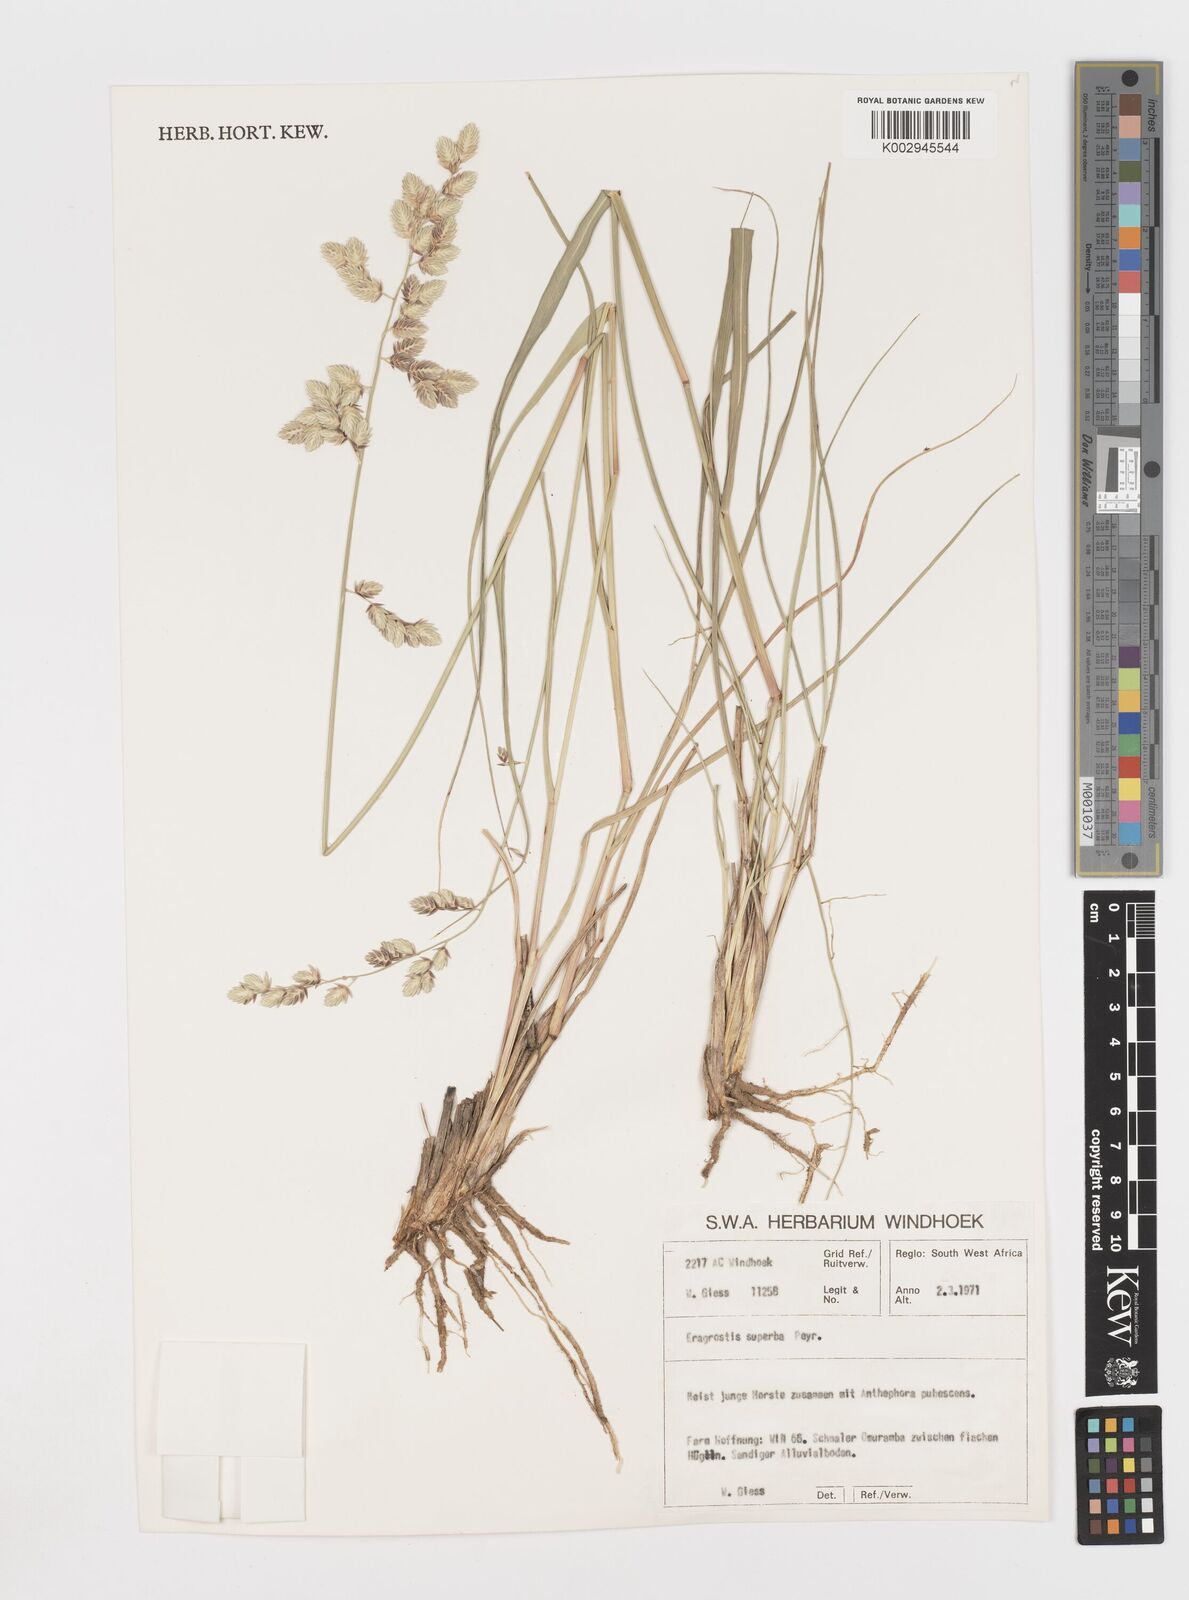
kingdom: Plantae
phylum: Tracheophyta
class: Liliopsida
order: Poales
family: Poaceae
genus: Eragrostis
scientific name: Eragrostis superba
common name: Wilman lovegrass
